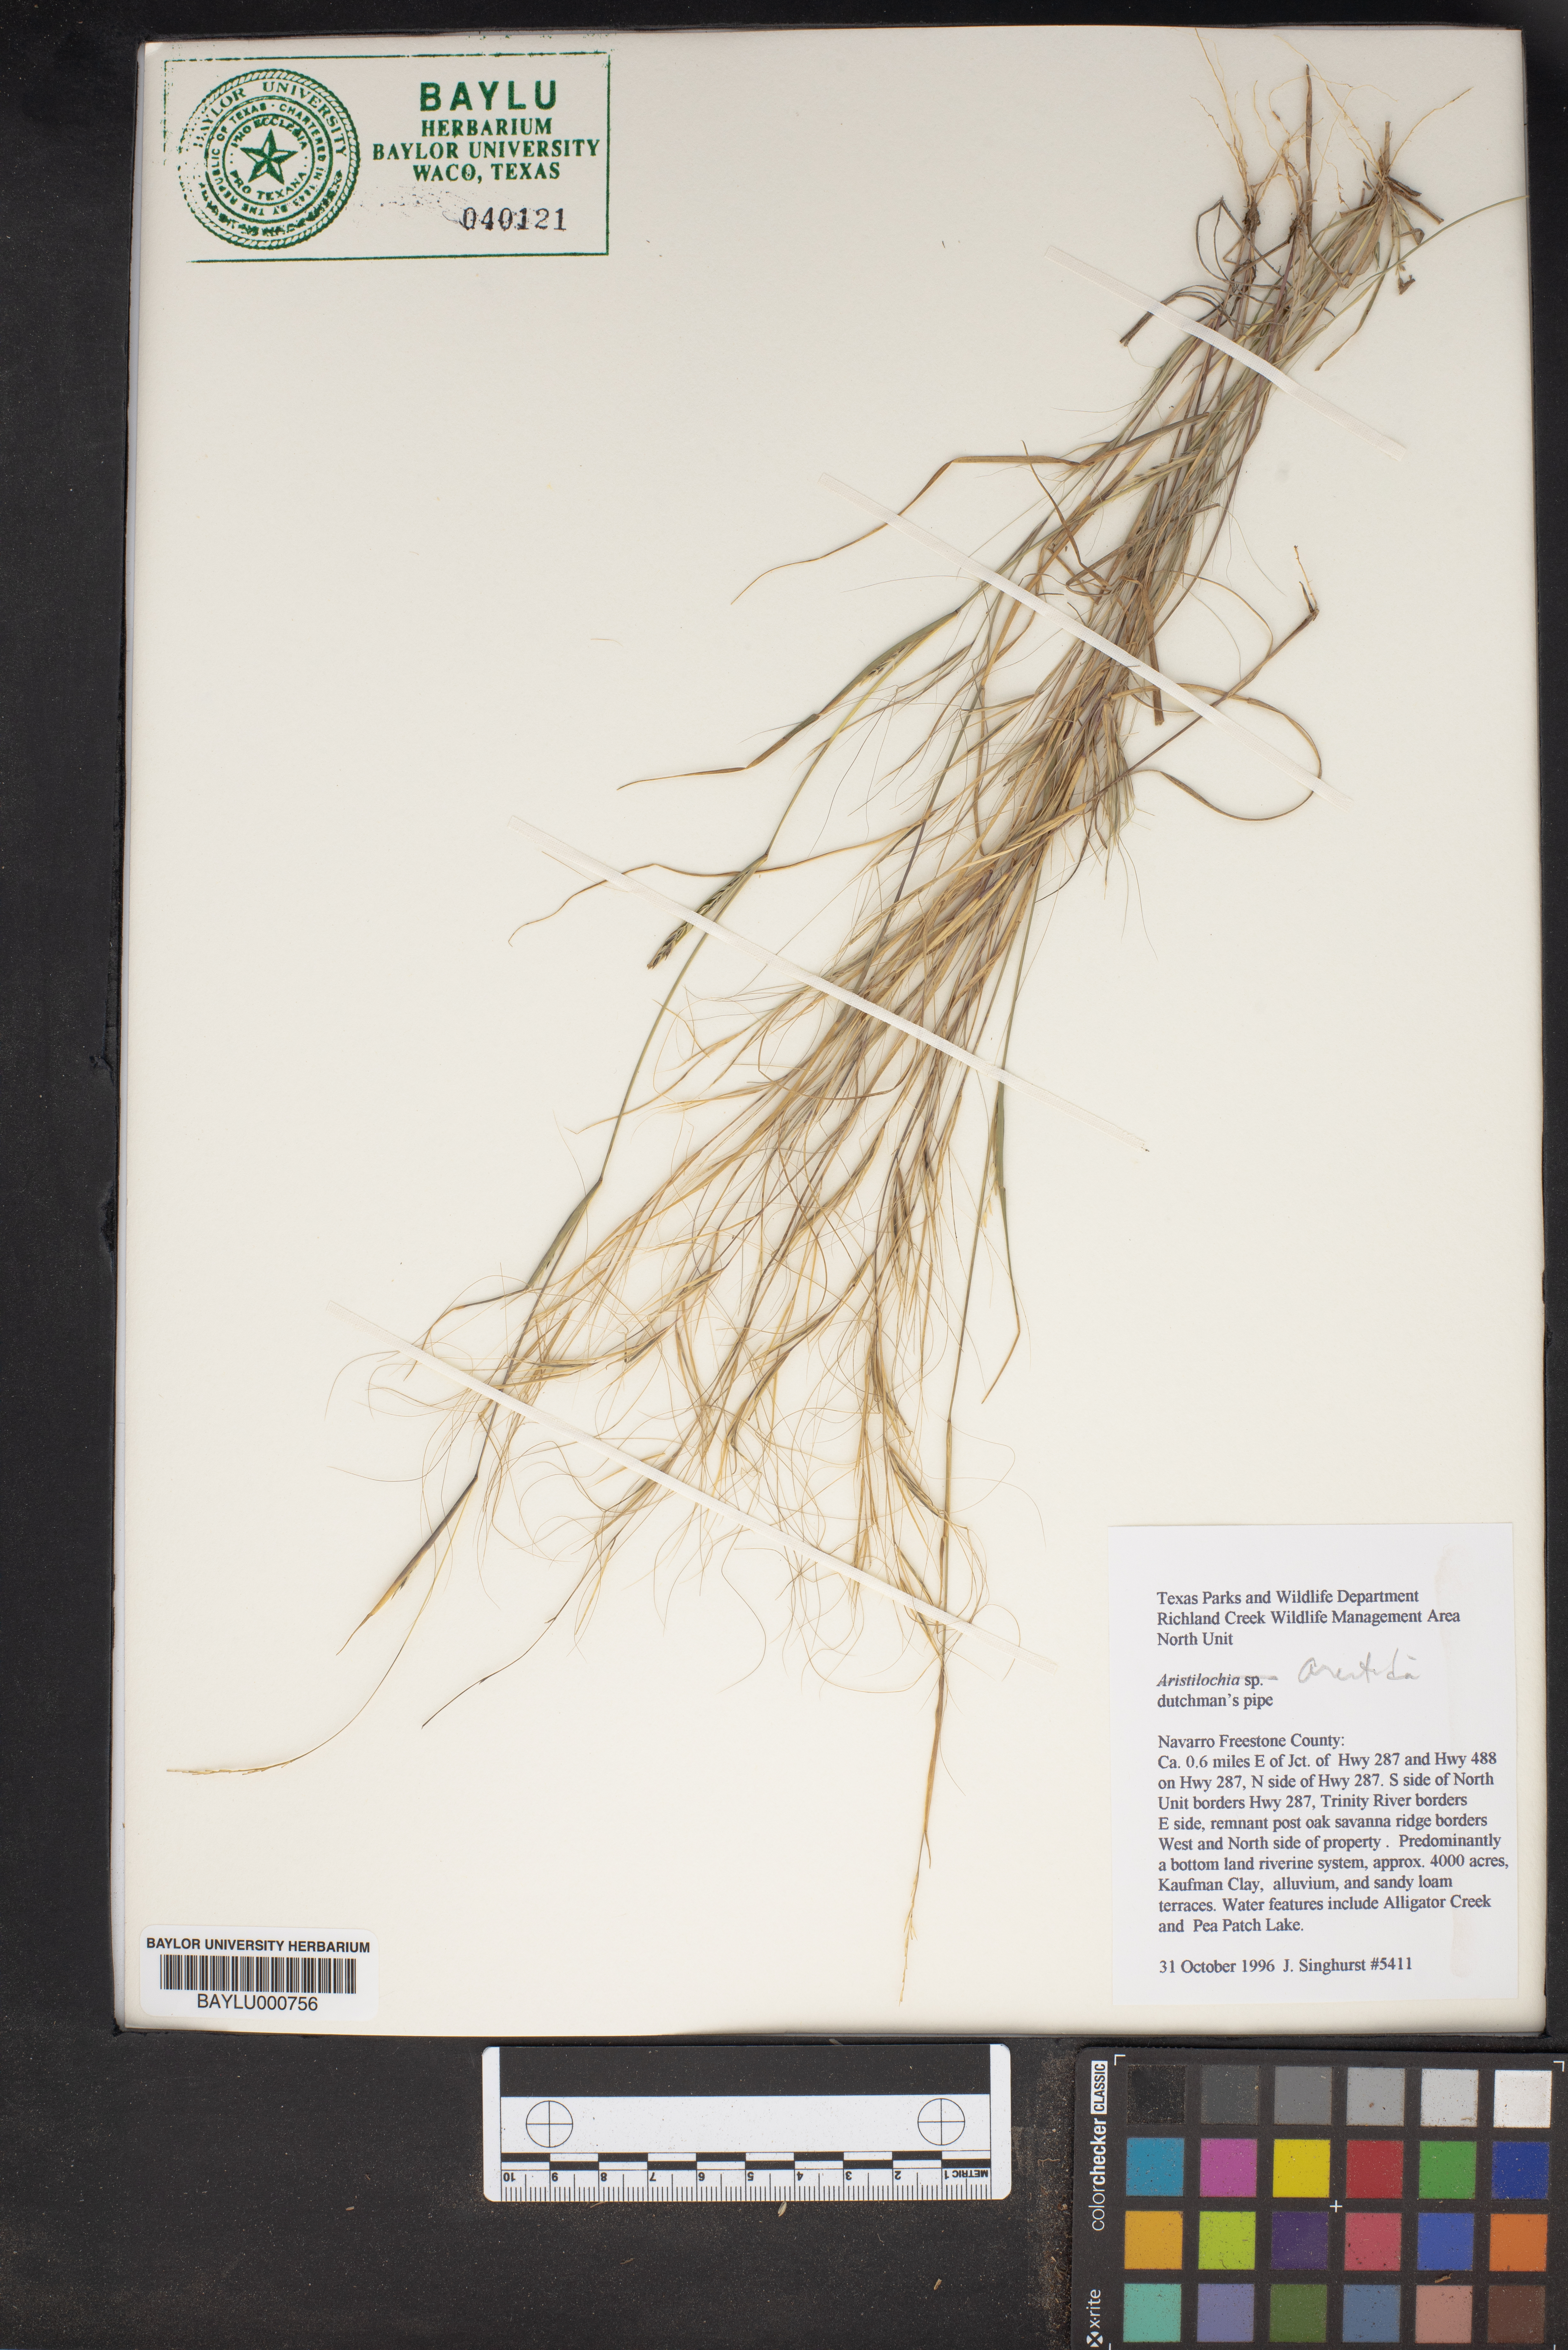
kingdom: Plantae
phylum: Tracheophyta
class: Magnoliopsida
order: Piperales
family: Aristolochiaceae
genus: Aristolochia
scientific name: Aristolochia
